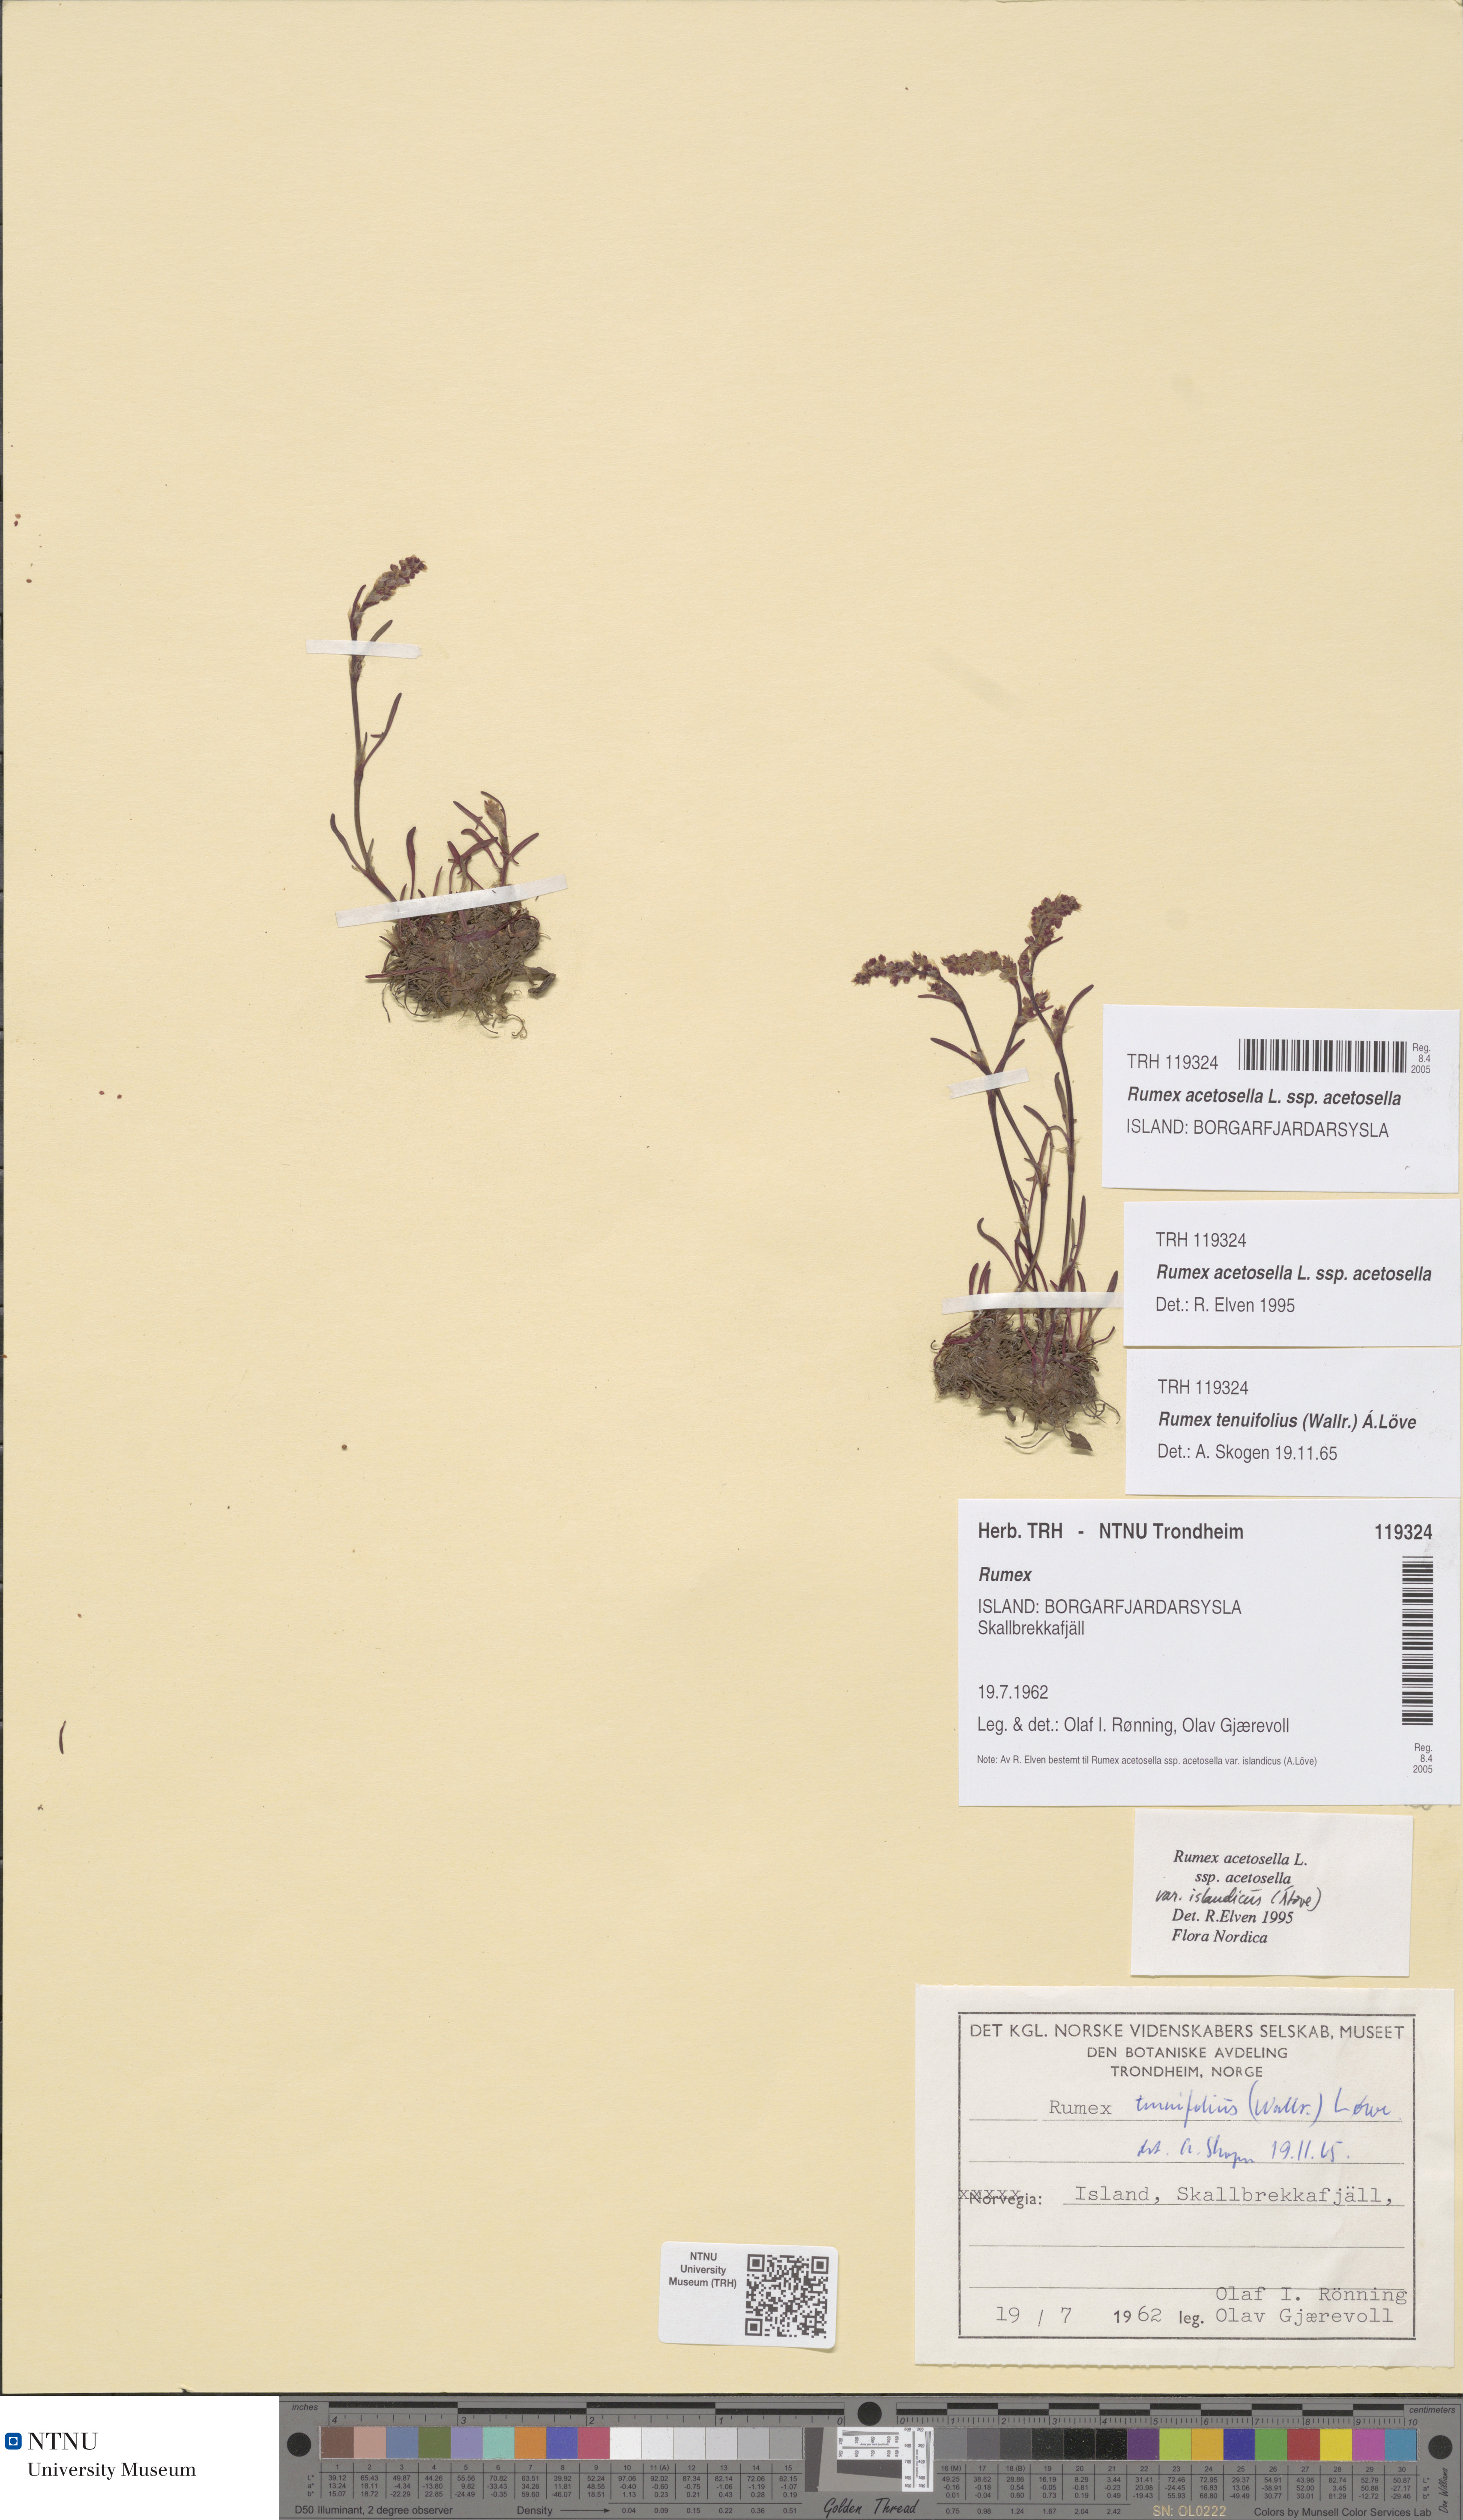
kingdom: Plantae
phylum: Tracheophyta
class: Magnoliopsida
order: Caryophyllales
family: Polygonaceae
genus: Rumex
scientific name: Rumex acetosella
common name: Common sheep sorrel
